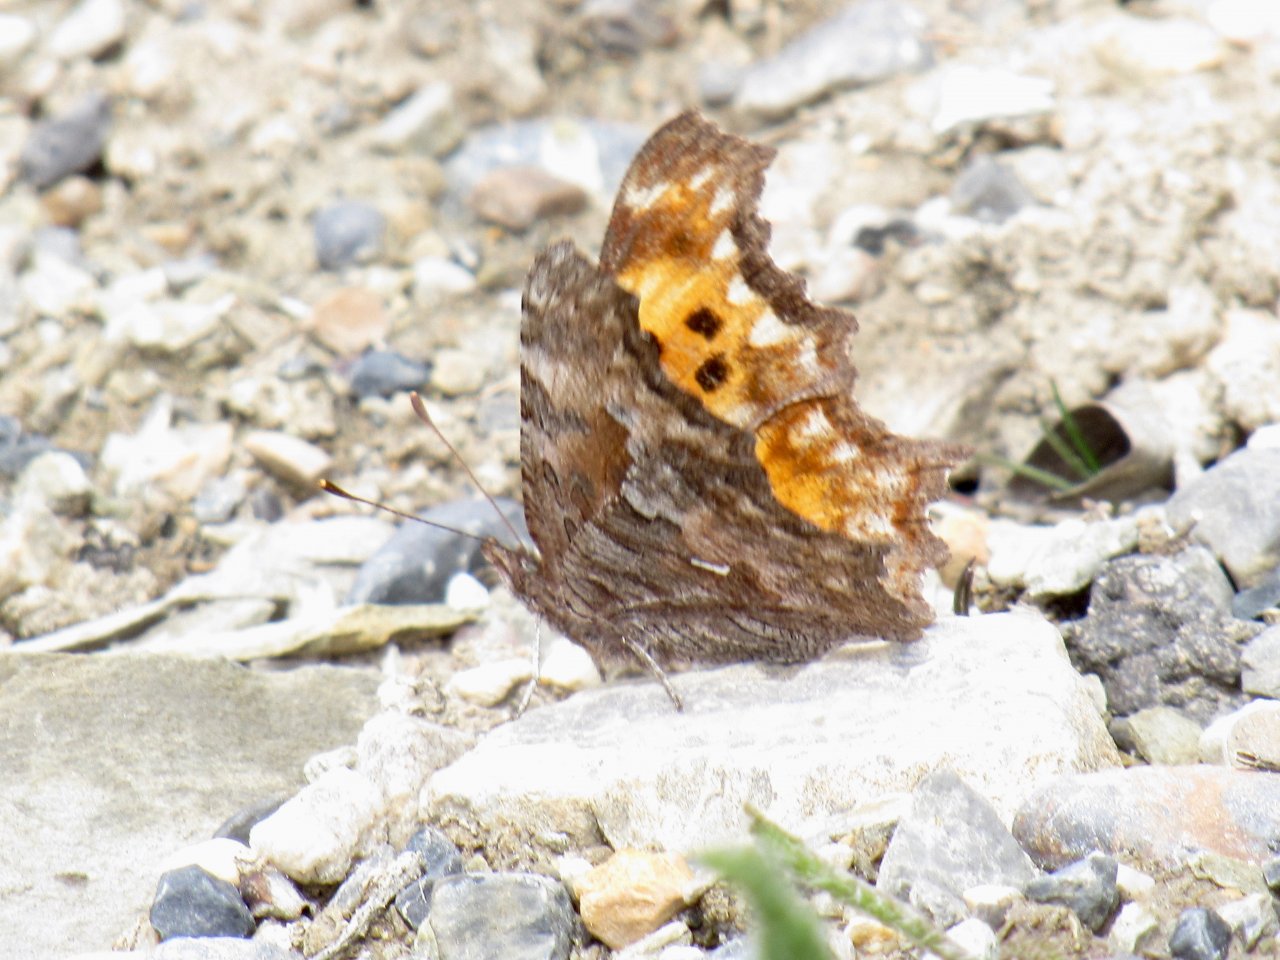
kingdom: Animalia
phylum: Arthropoda
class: Insecta
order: Lepidoptera
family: Nymphalidae
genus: Polygonia
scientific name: Polygonia satyrus
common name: Satyr Comma
